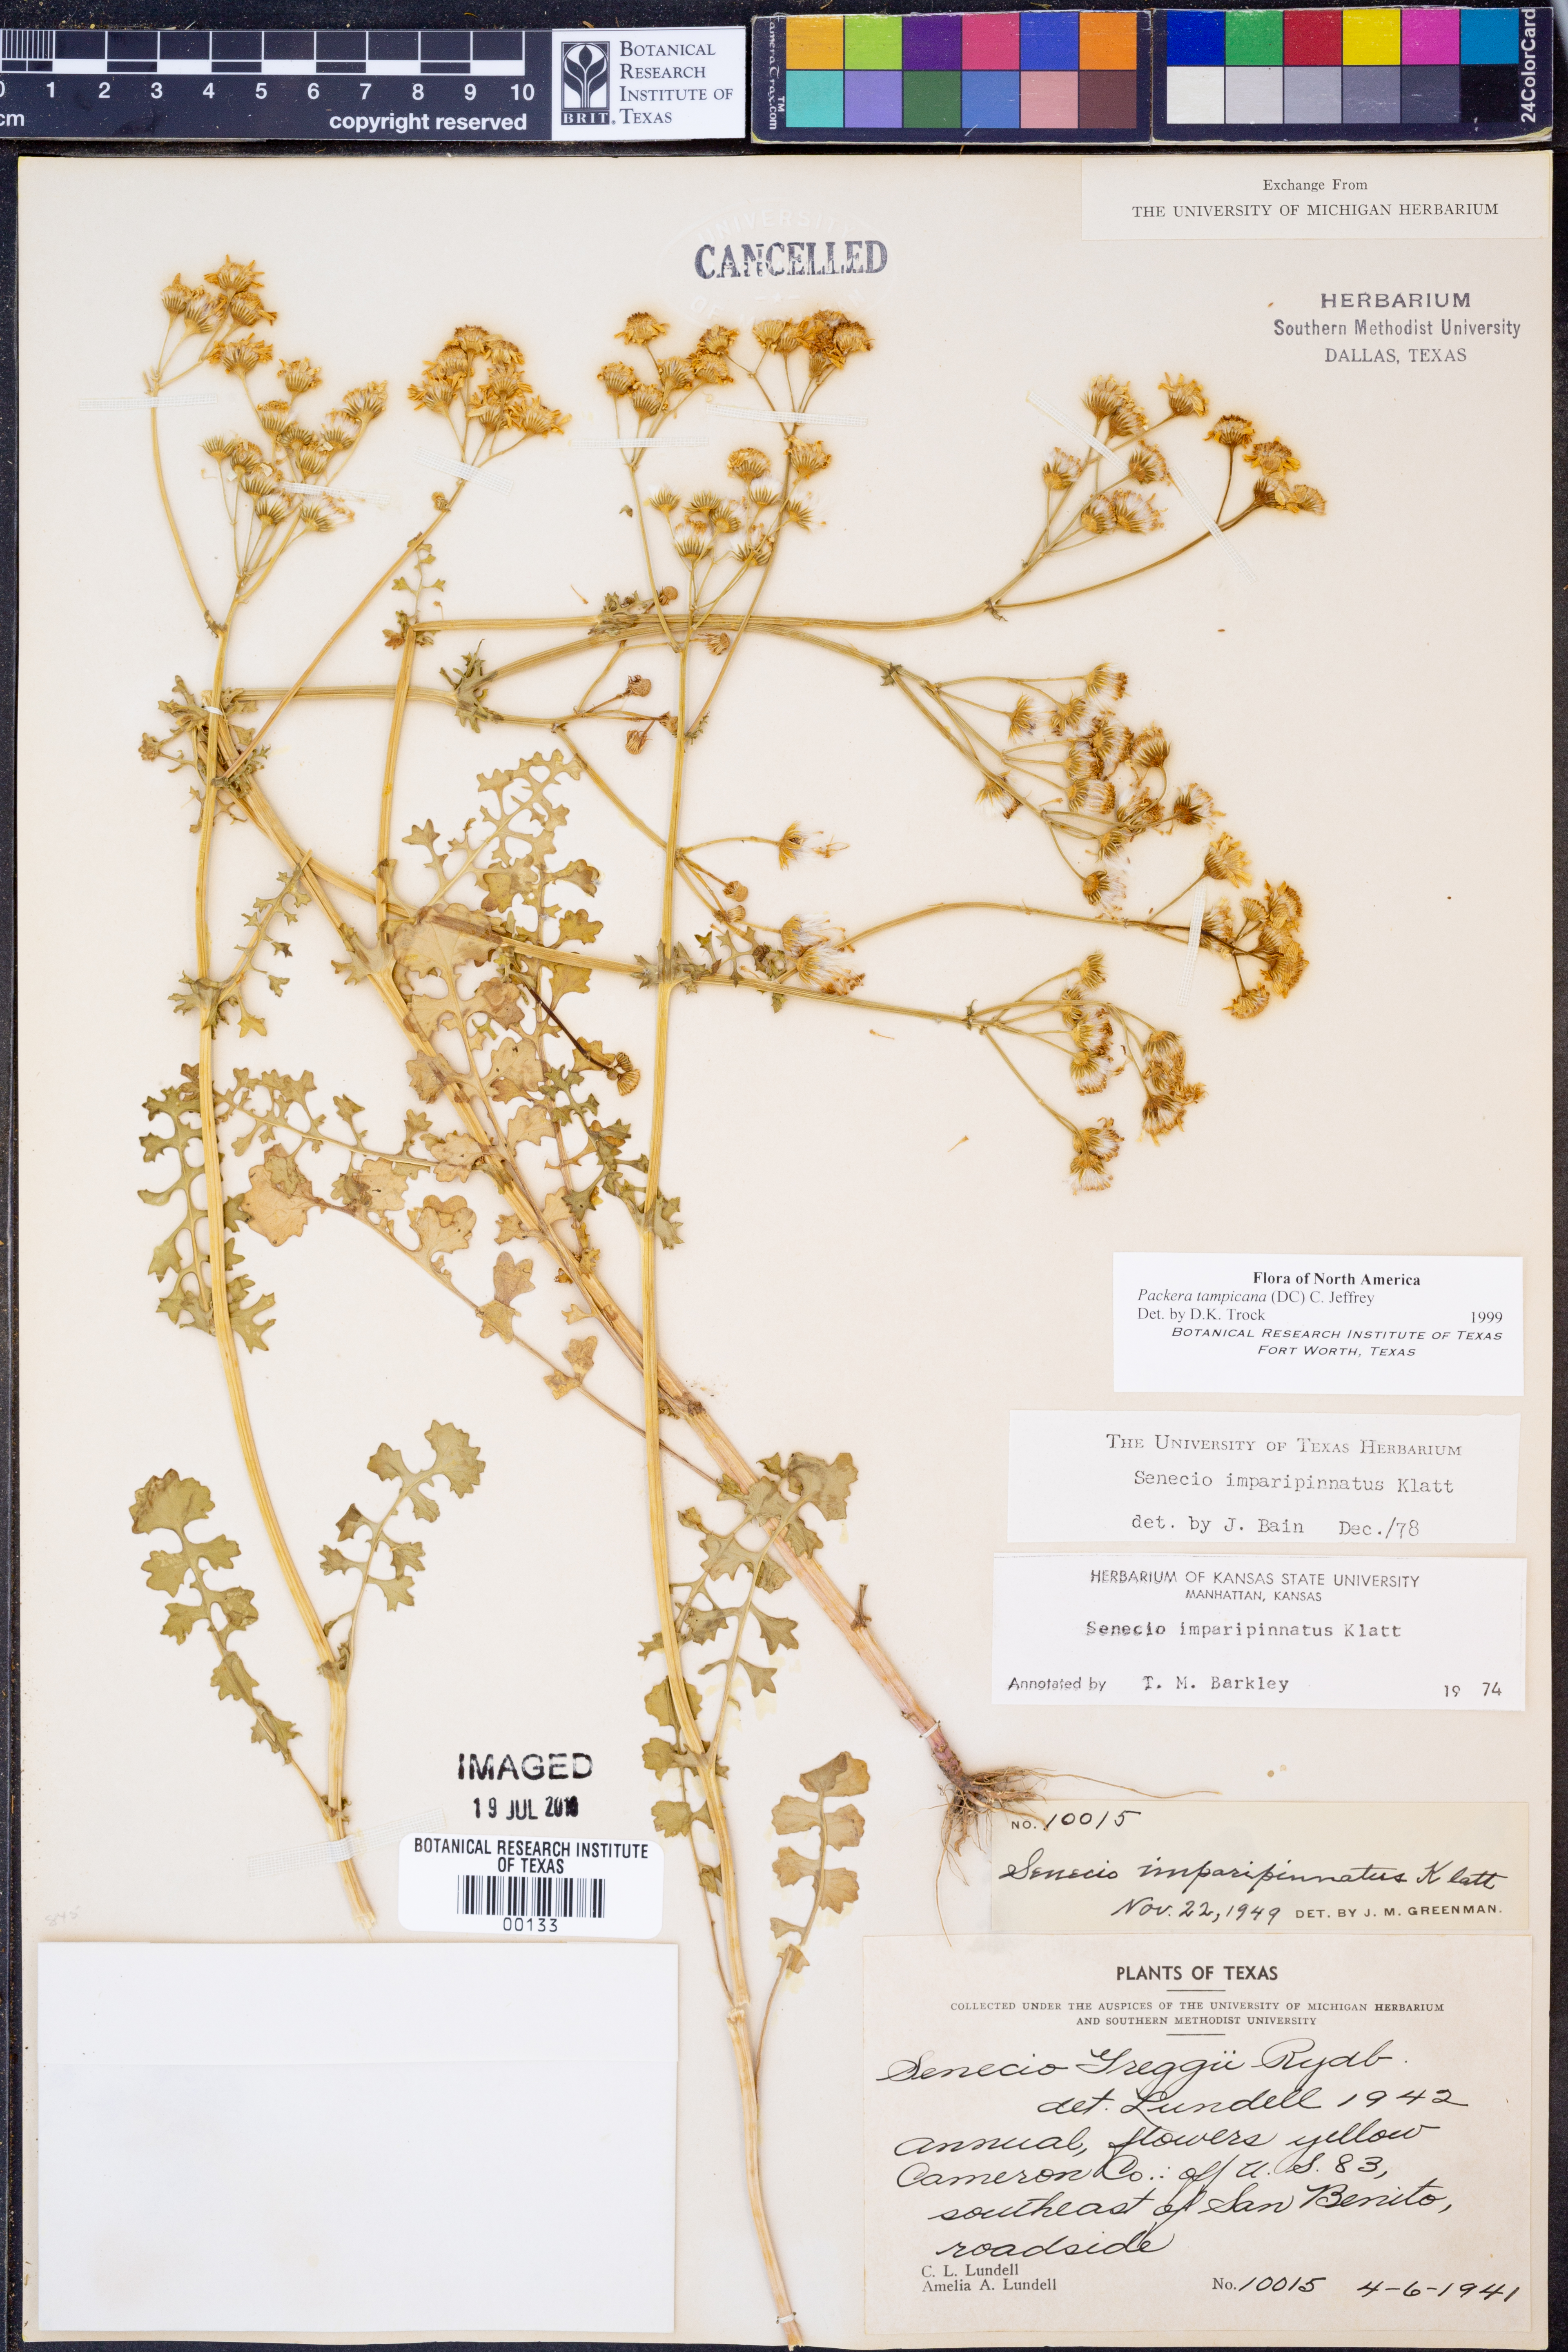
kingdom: Plantae
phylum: Tracheophyta
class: Magnoliopsida
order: Asterales
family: Asteraceae
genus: Packera
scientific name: Packera tampicana
